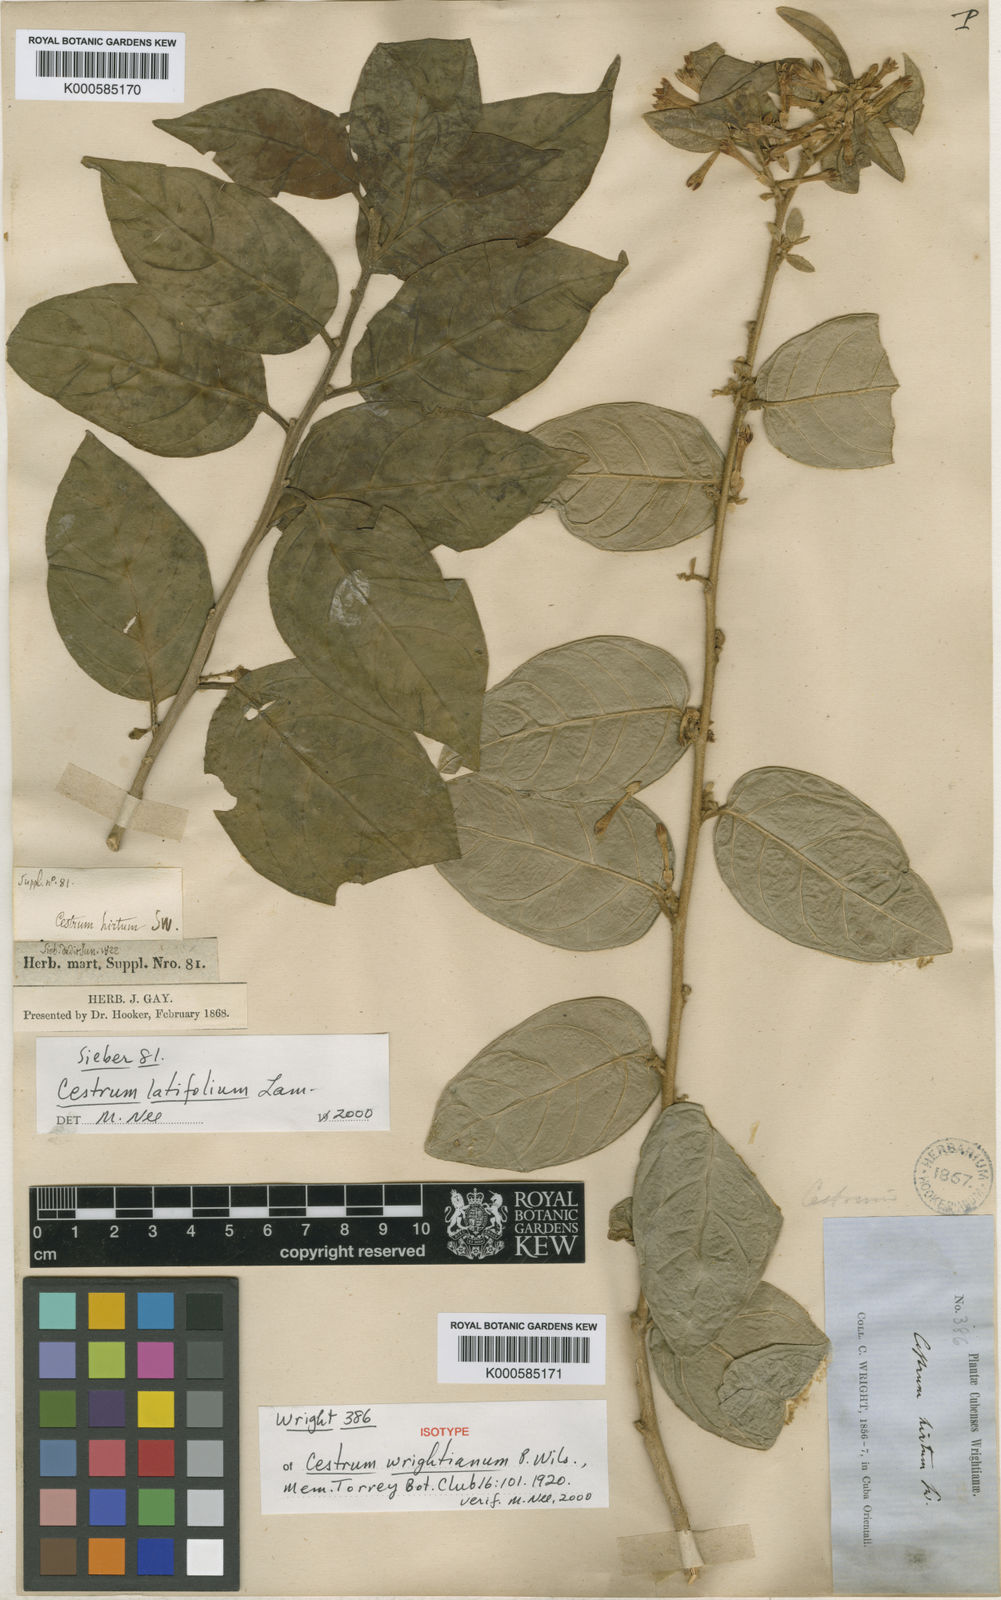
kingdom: Plantae
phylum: Tracheophyta
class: Magnoliopsida
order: Solanales
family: Solanaceae
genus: Cestrum
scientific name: Cestrum
